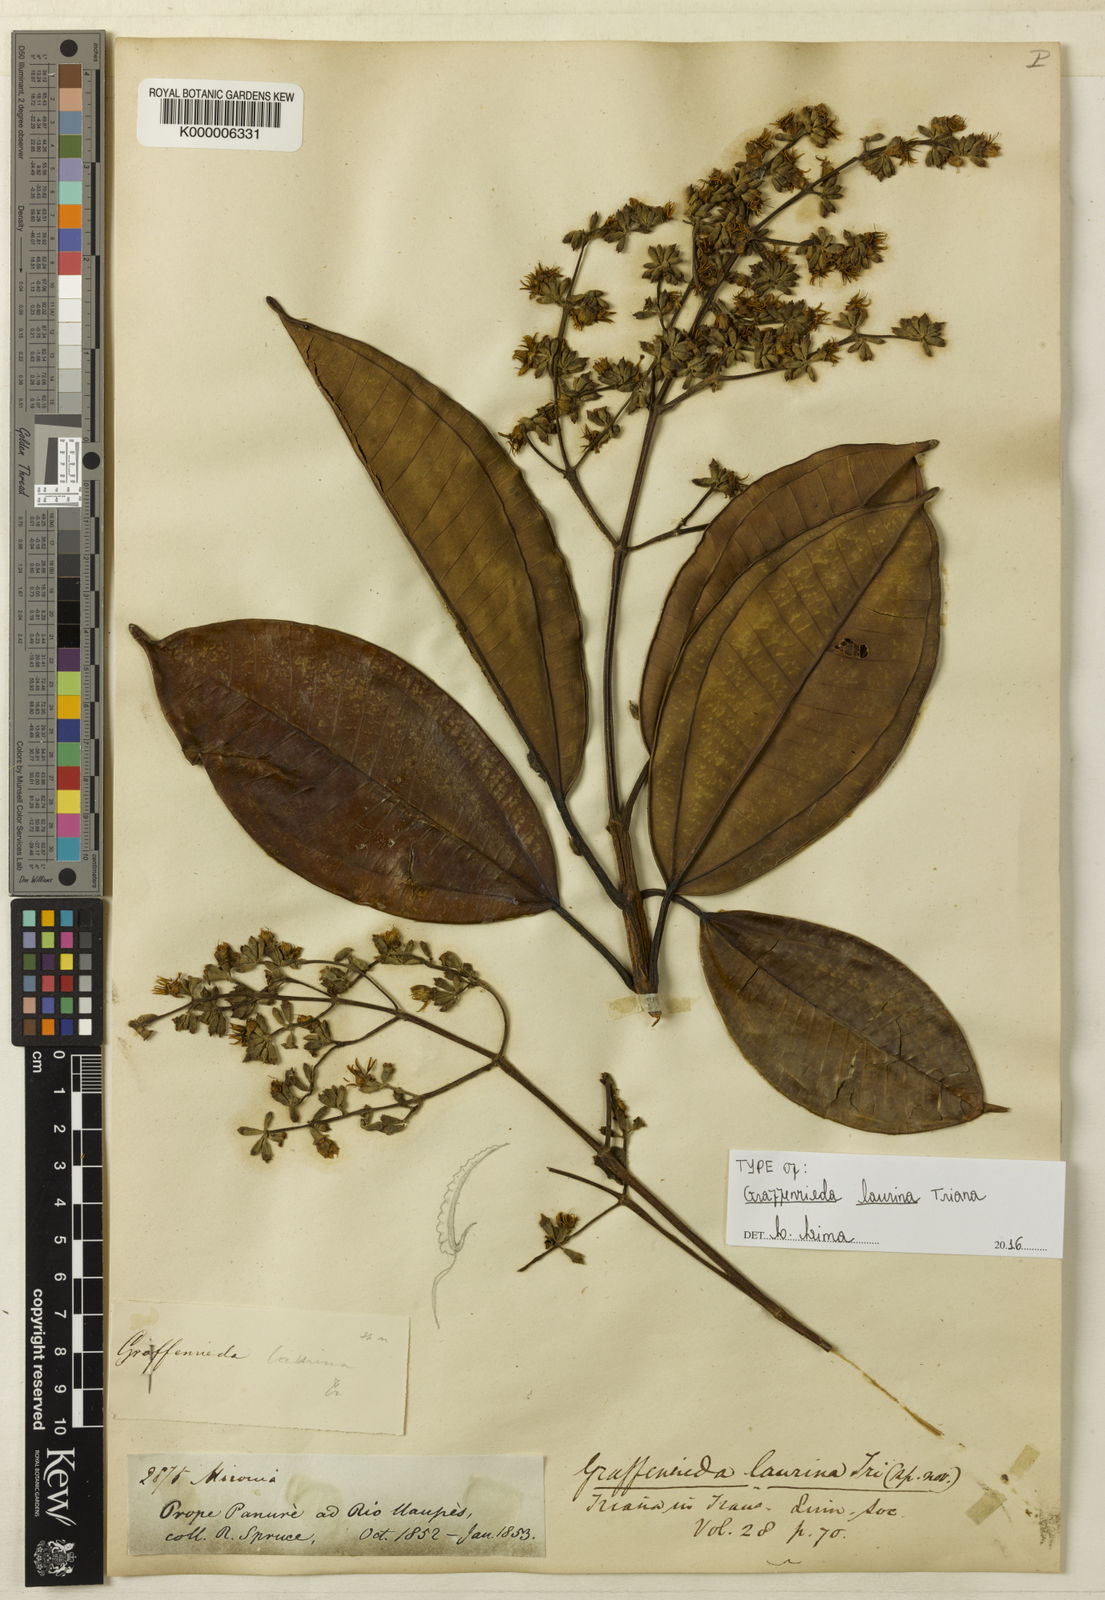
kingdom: Plantae
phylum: Tracheophyta
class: Magnoliopsida
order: Myrtales
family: Melastomataceae
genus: Graffenrieda
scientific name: Graffenrieda laurina
